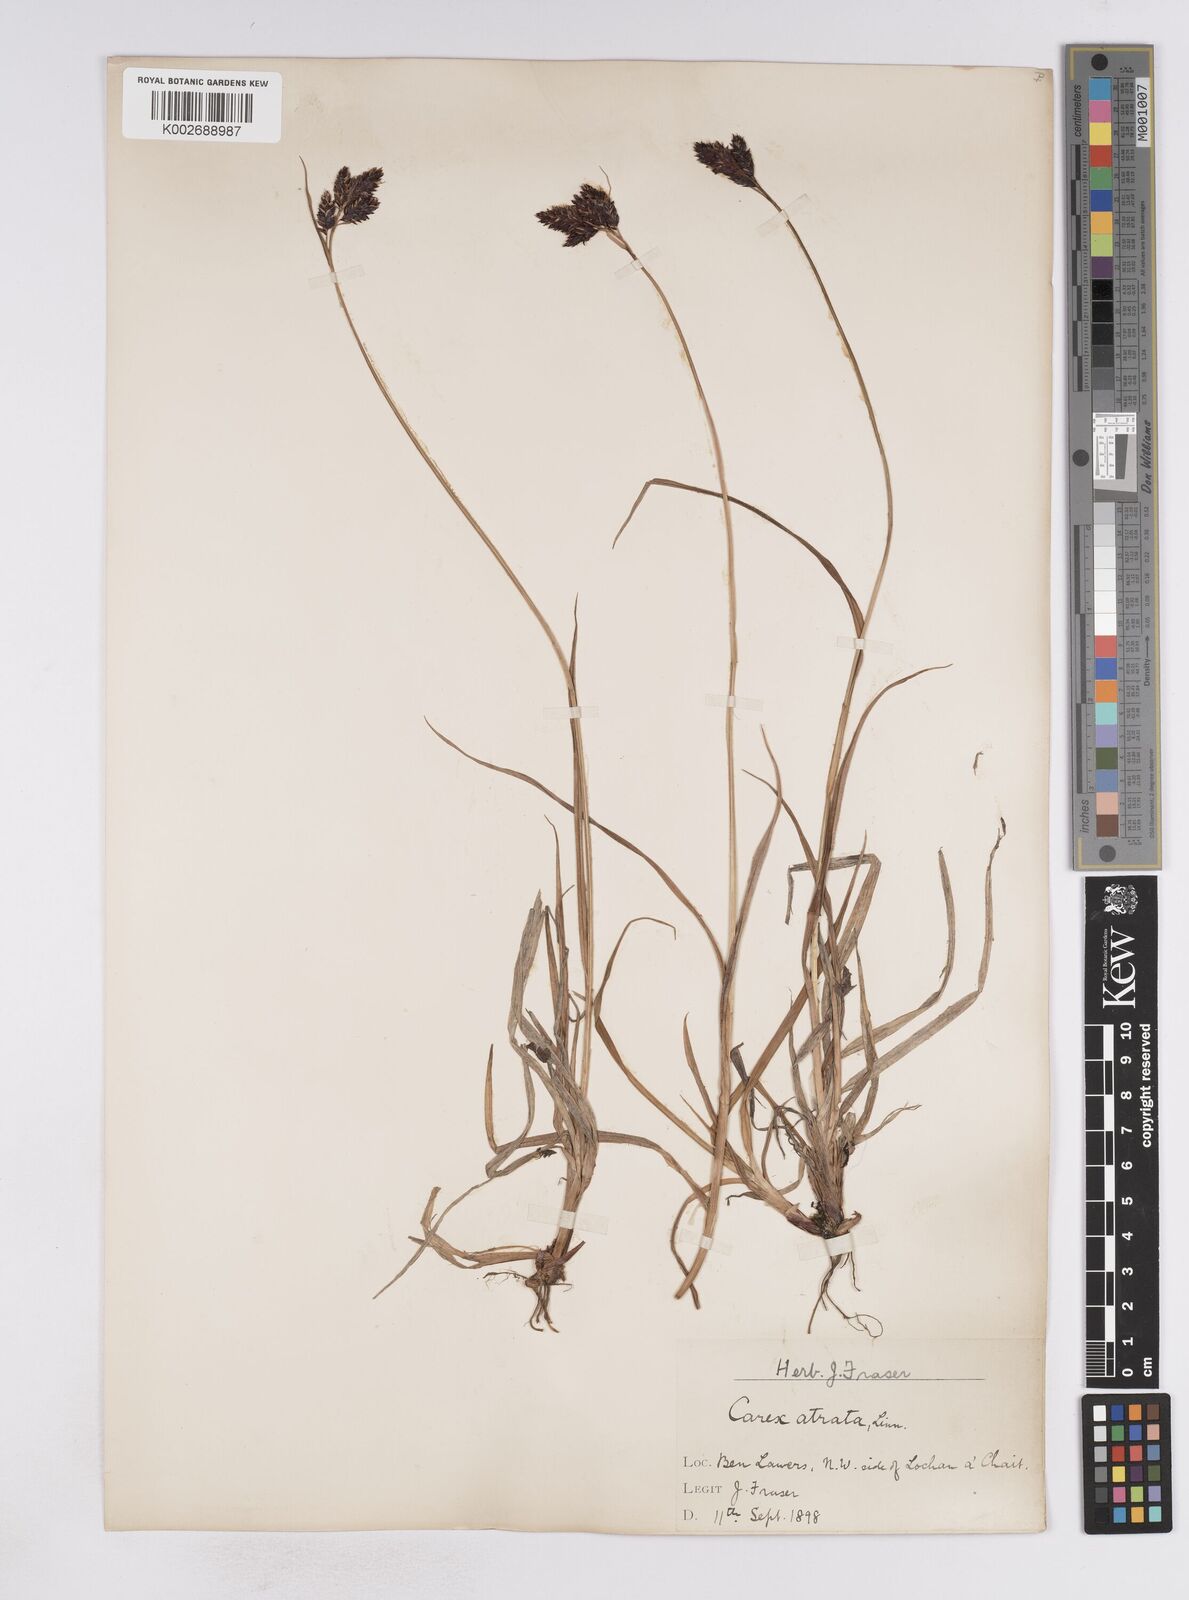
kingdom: Plantae
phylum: Tracheophyta
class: Liliopsida
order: Poales
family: Cyperaceae
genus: Carex
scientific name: Carex atrata
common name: Black alpine sedge
